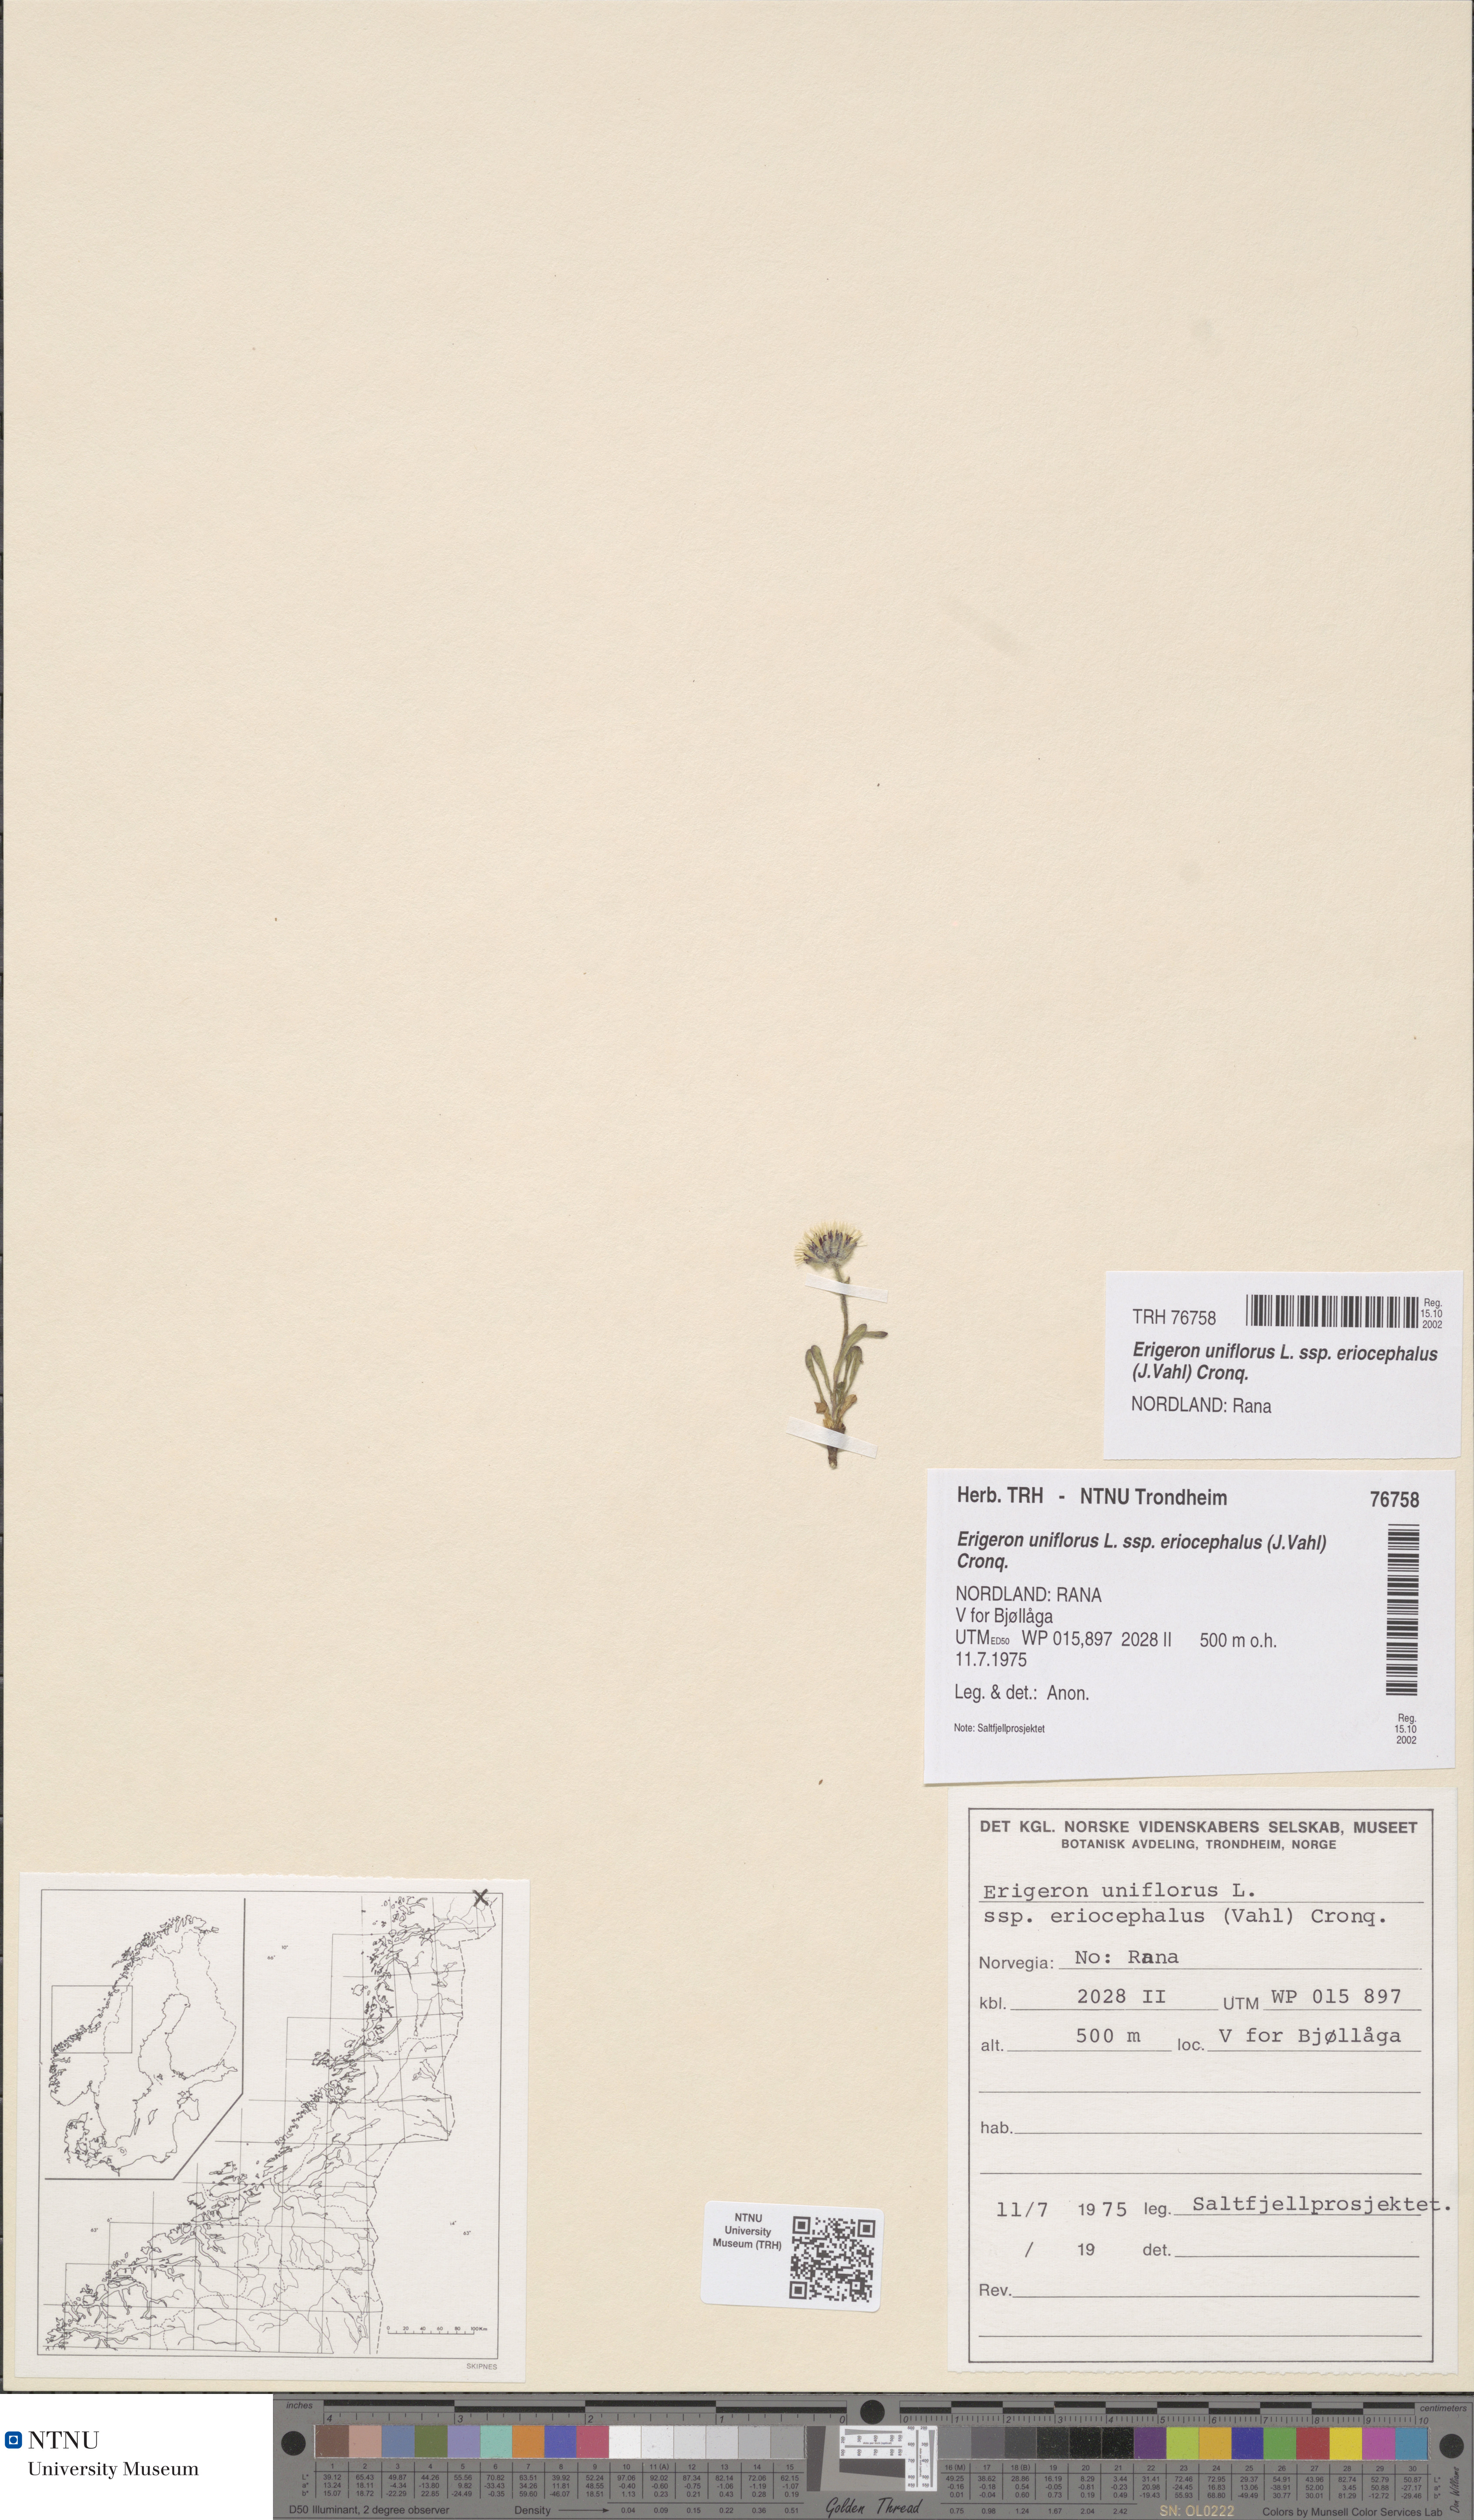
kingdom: Plantae
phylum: Tracheophyta
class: Magnoliopsida
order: Asterales
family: Asteraceae
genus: Erigeron
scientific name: Erigeron eriocephalus
